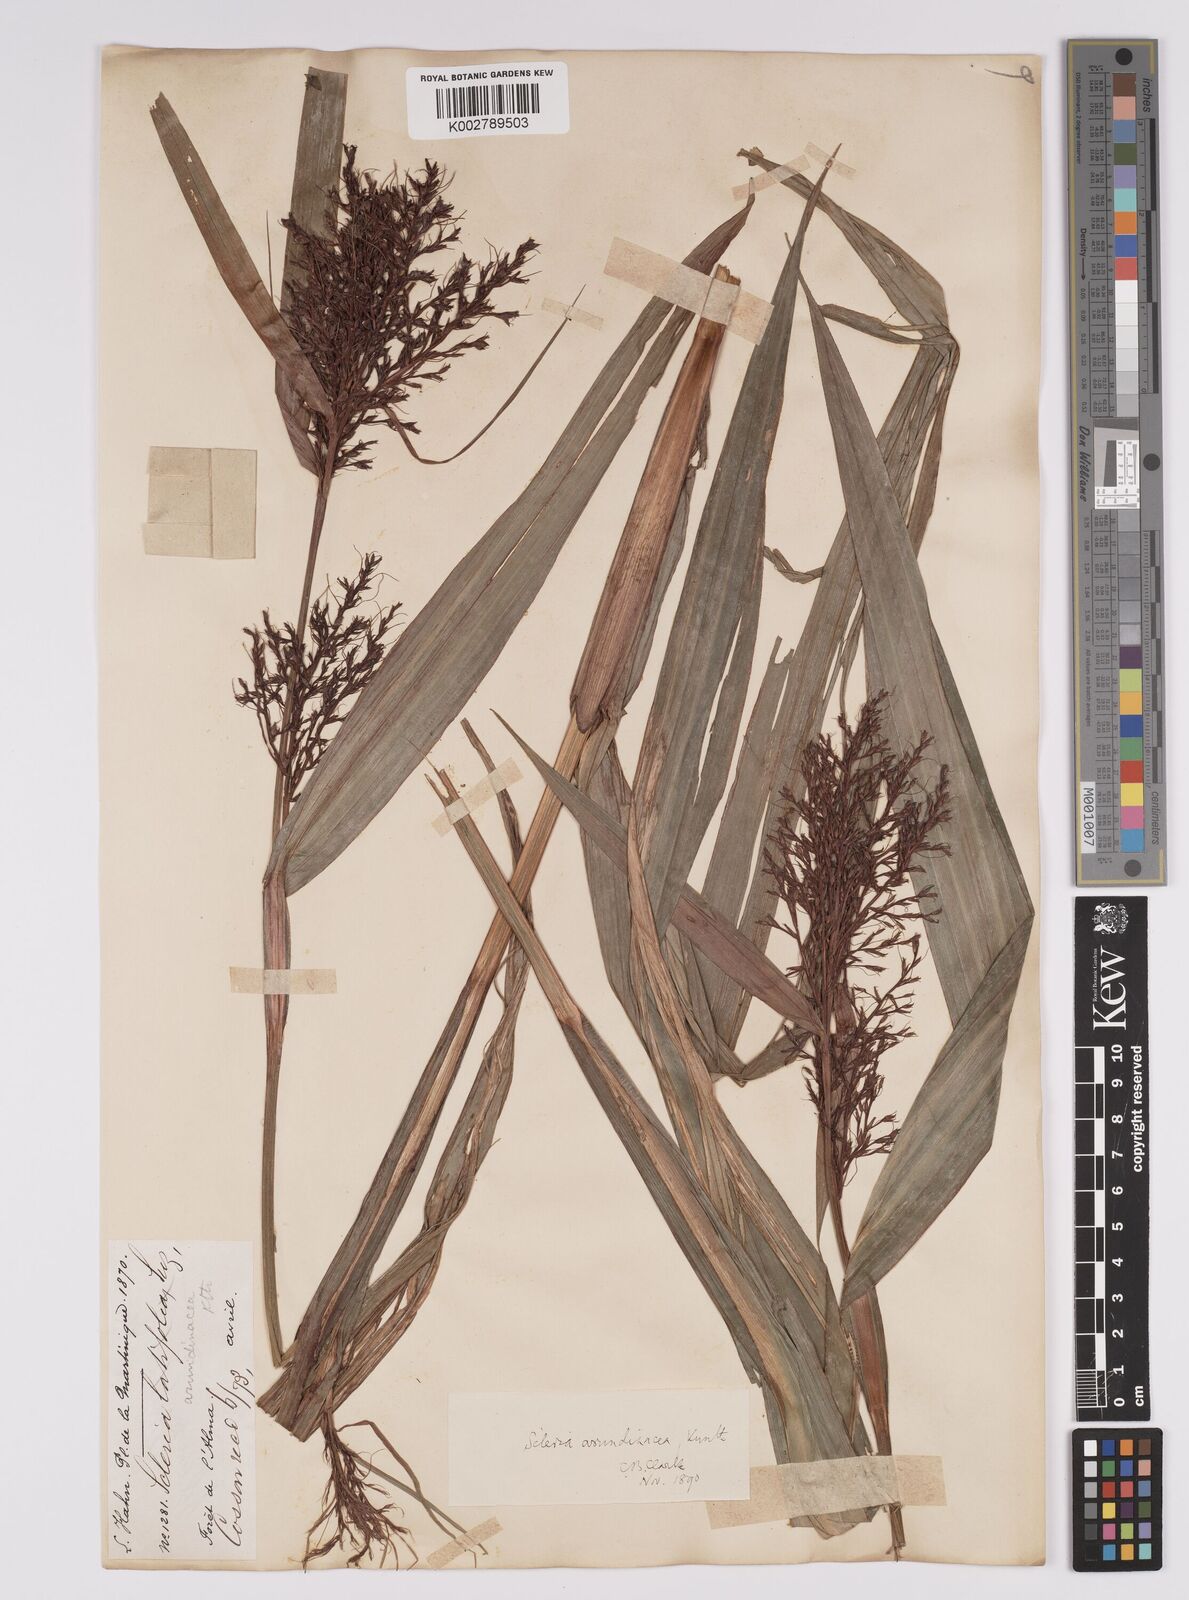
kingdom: Plantae
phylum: Tracheophyta
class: Liliopsida
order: Poales
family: Cyperaceae
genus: Scleria
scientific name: Scleria latifolia
